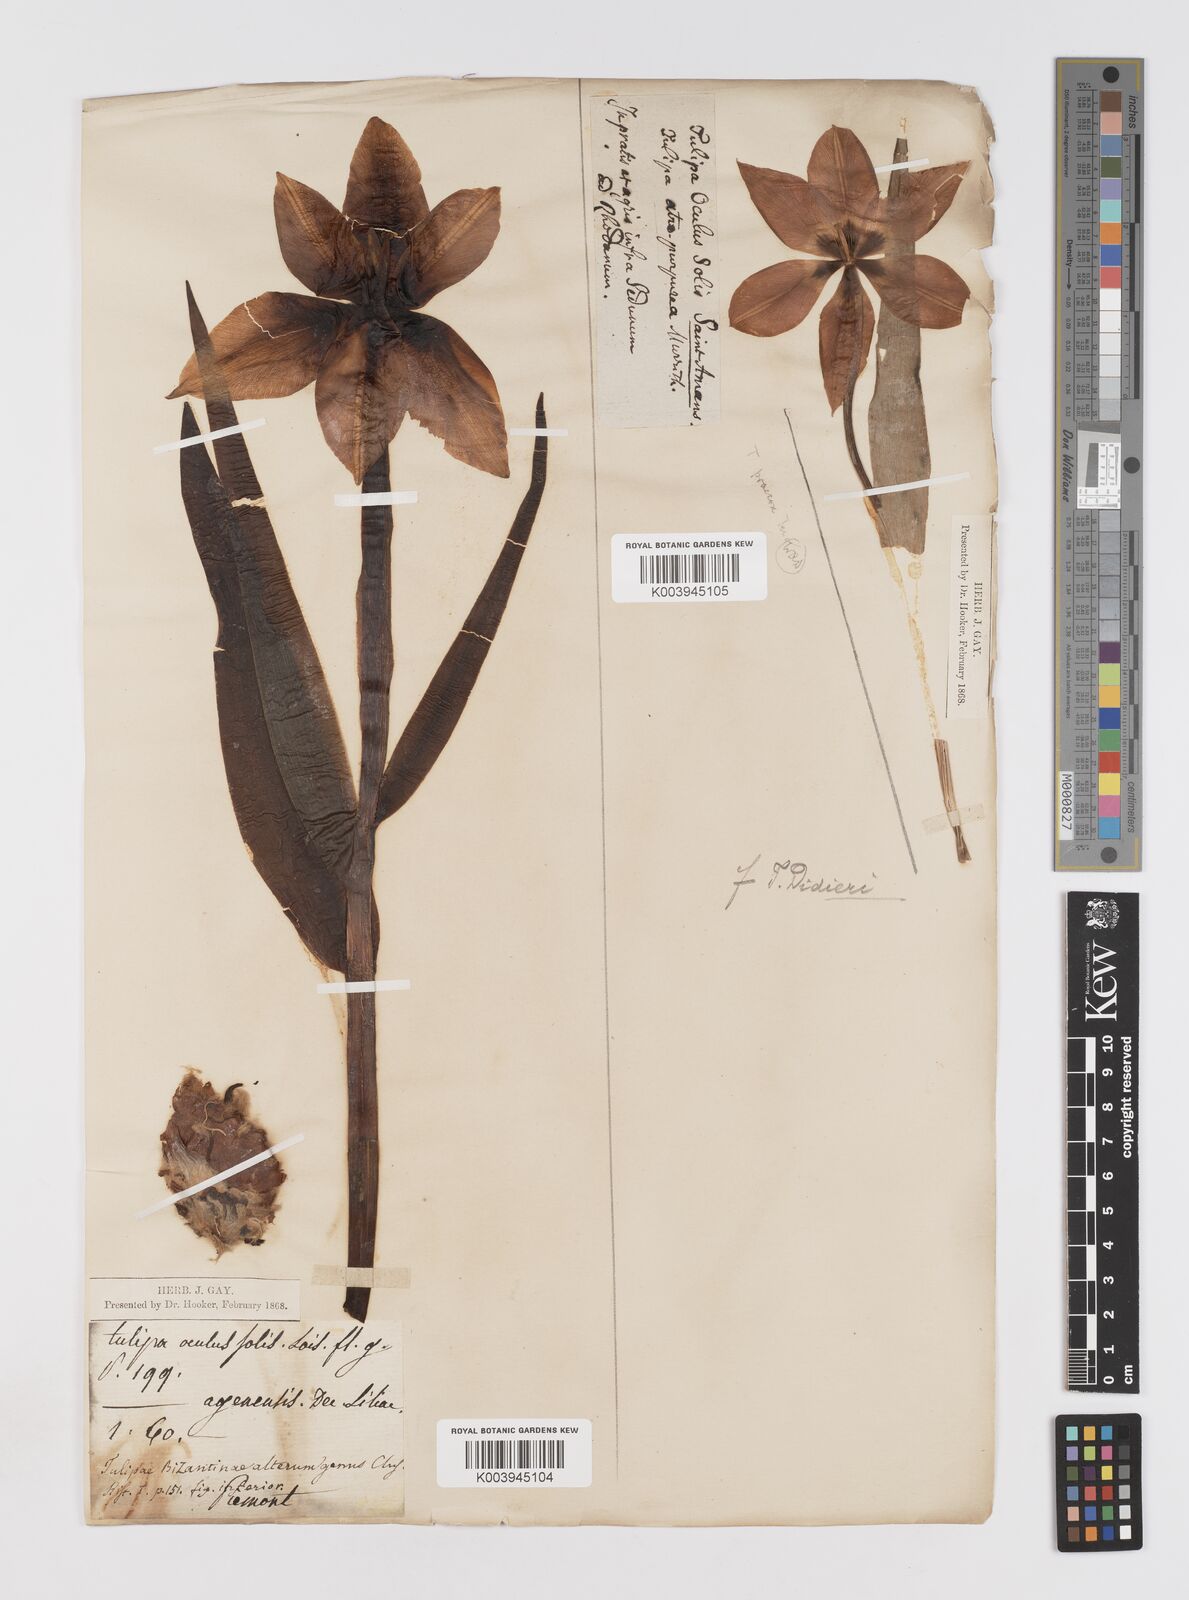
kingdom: Plantae
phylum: Tracheophyta
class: Liliopsida
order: Liliales
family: Liliaceae
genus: Tulipa
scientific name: Tulipa
